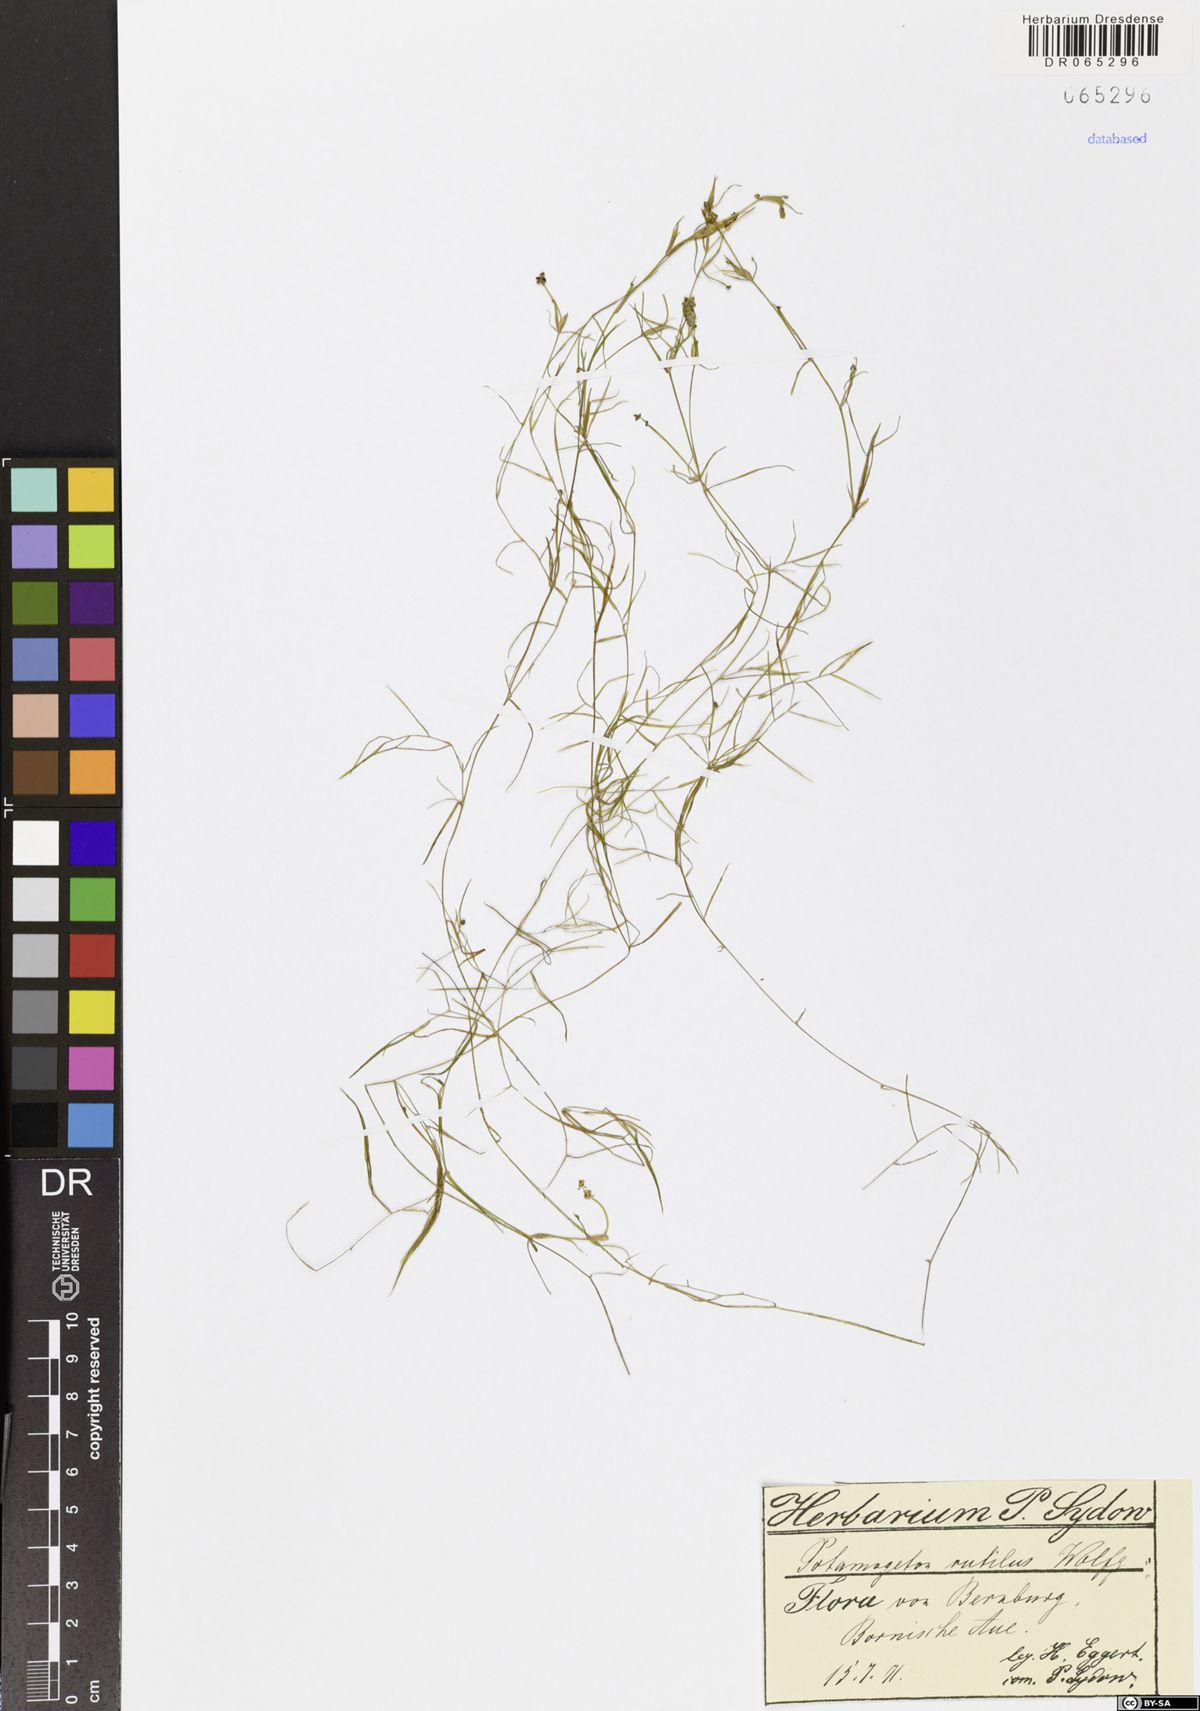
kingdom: Plantae
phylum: Tracheophyta
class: Liliopsida
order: Alismatales
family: Potamogetonaceae
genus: Potamogeton
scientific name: Potamogeton rutilus
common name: Shetland pondweed
